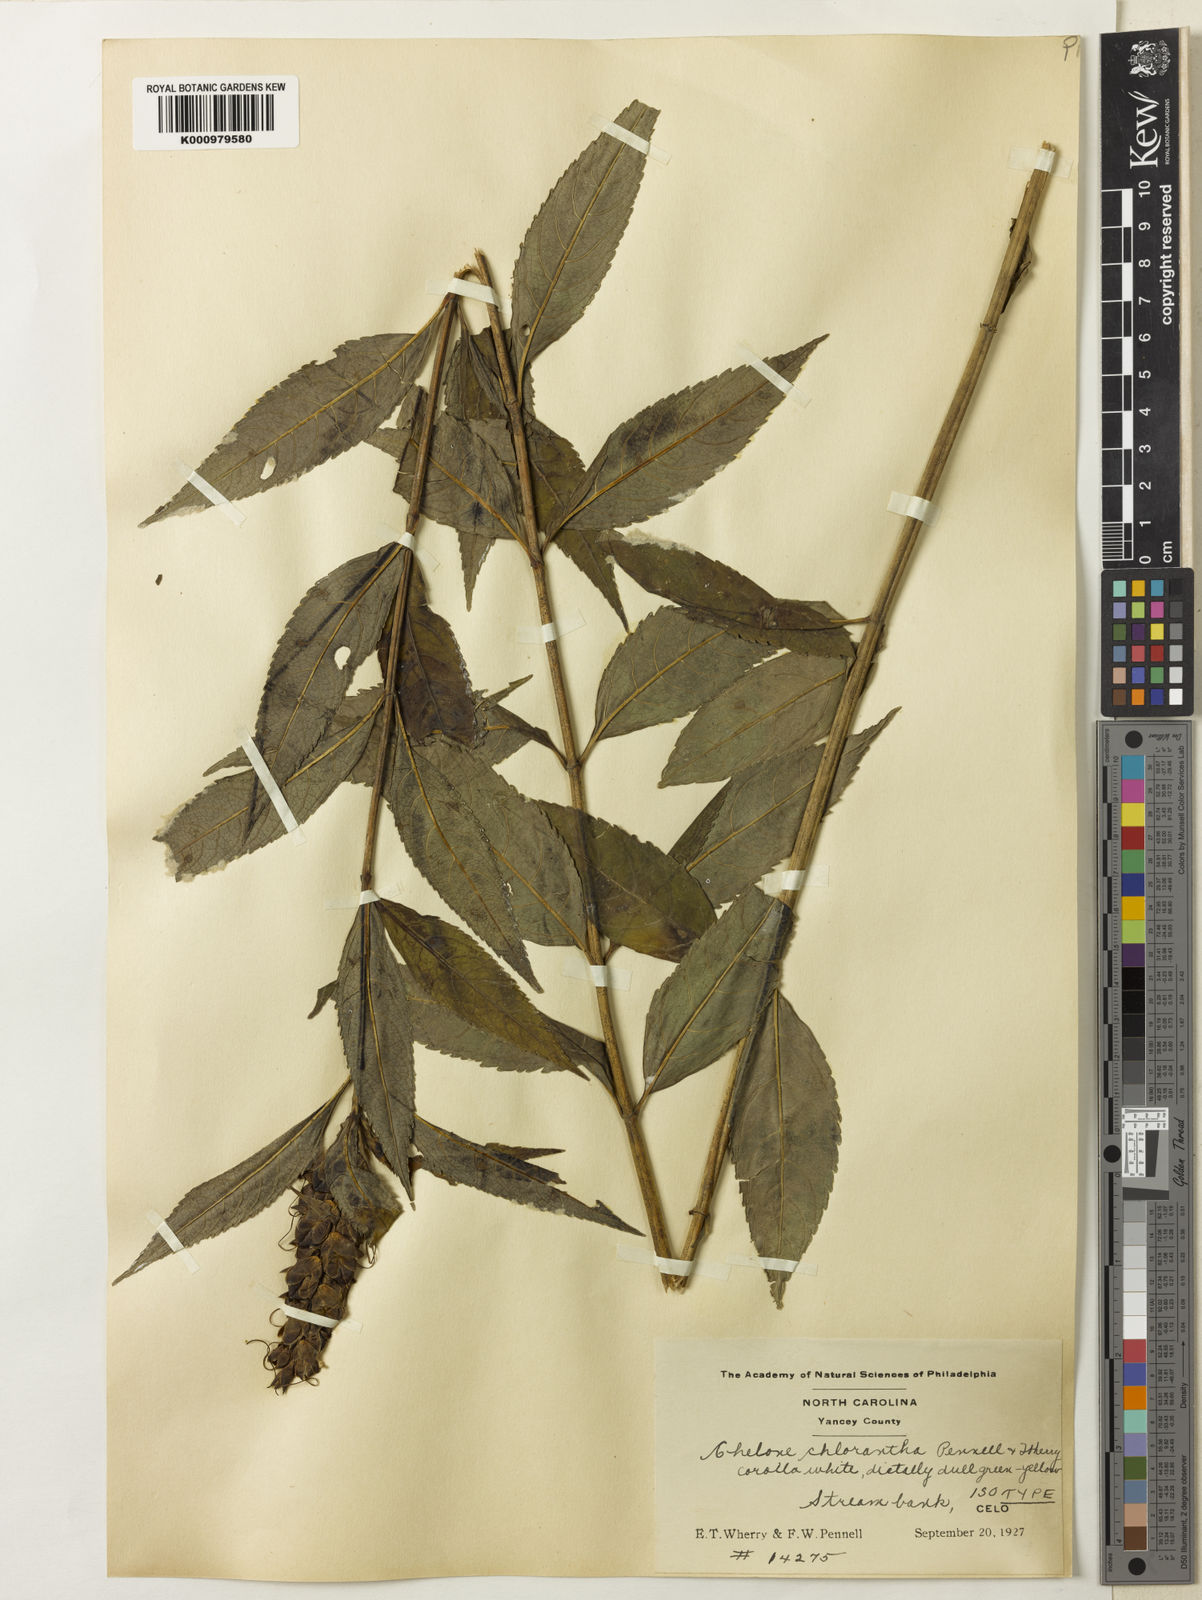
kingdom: Plantae
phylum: Tracheophyta
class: Magnoliopsida
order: Lamiales
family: Plantaginaceae
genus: Chelone
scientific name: Chelone glabra
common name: Snakehead
